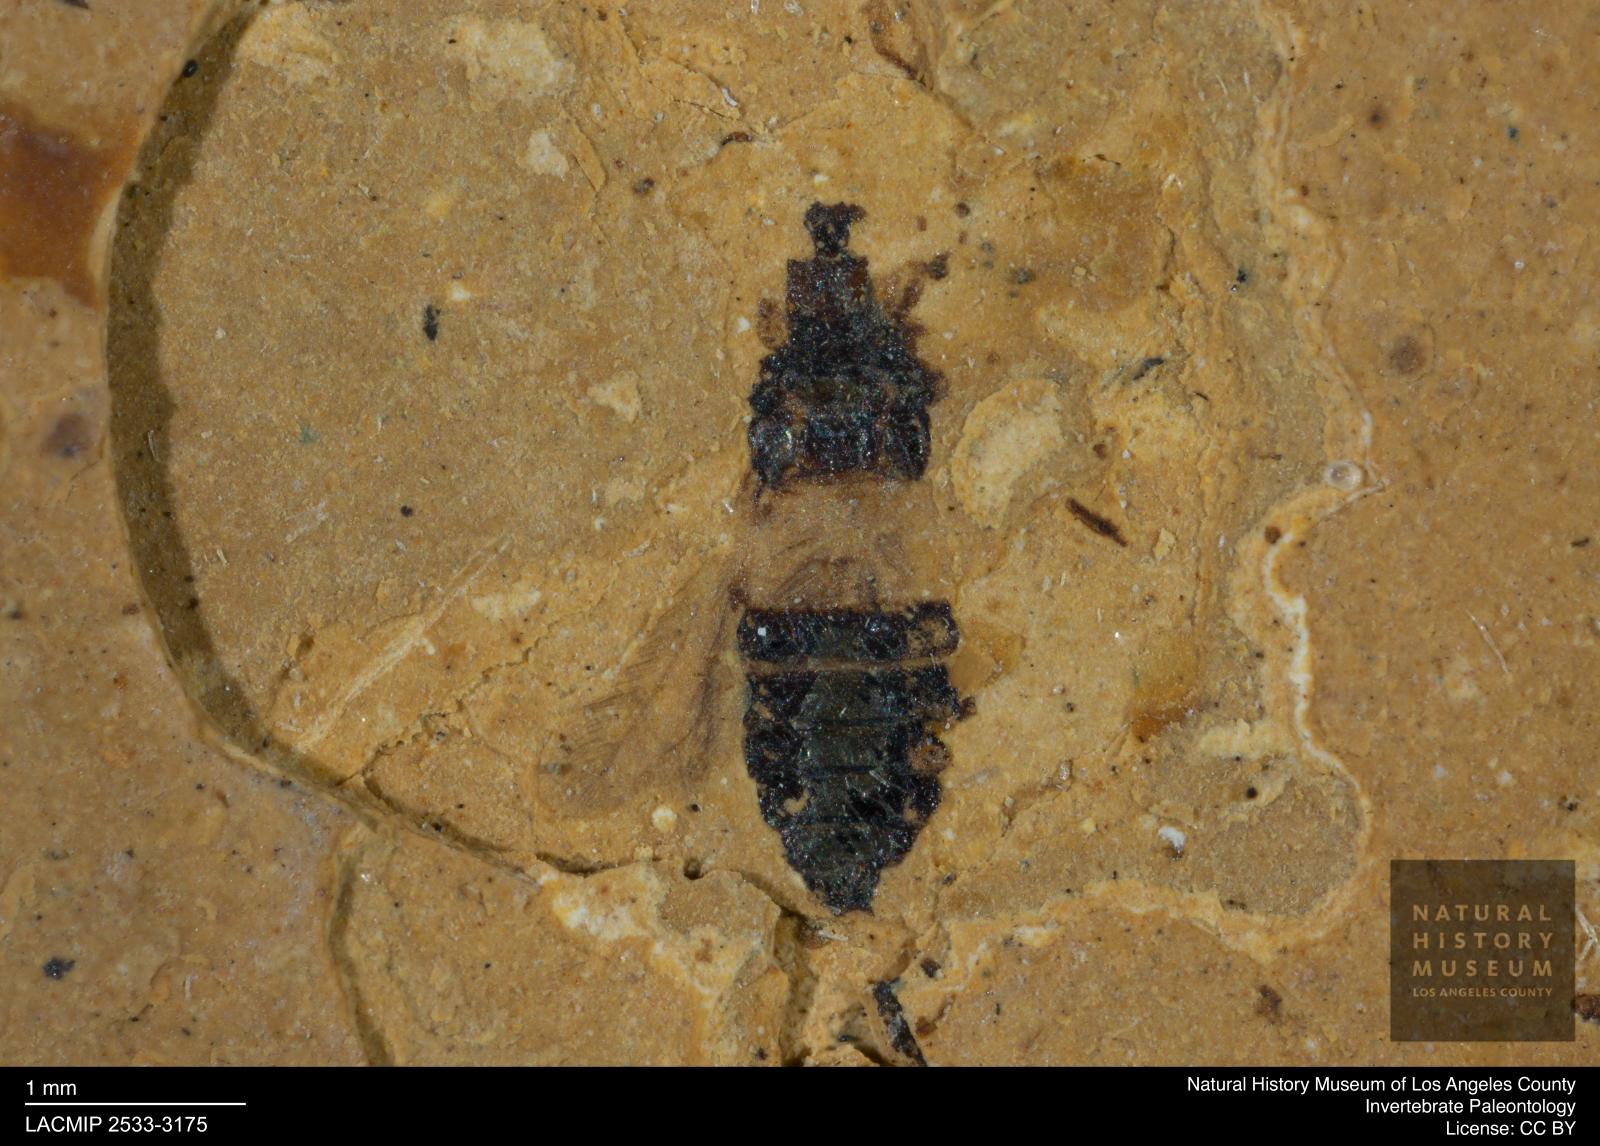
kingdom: Animalia
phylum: Arthropoda
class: Insecta
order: Thysanoptera
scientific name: Thysanoptera
